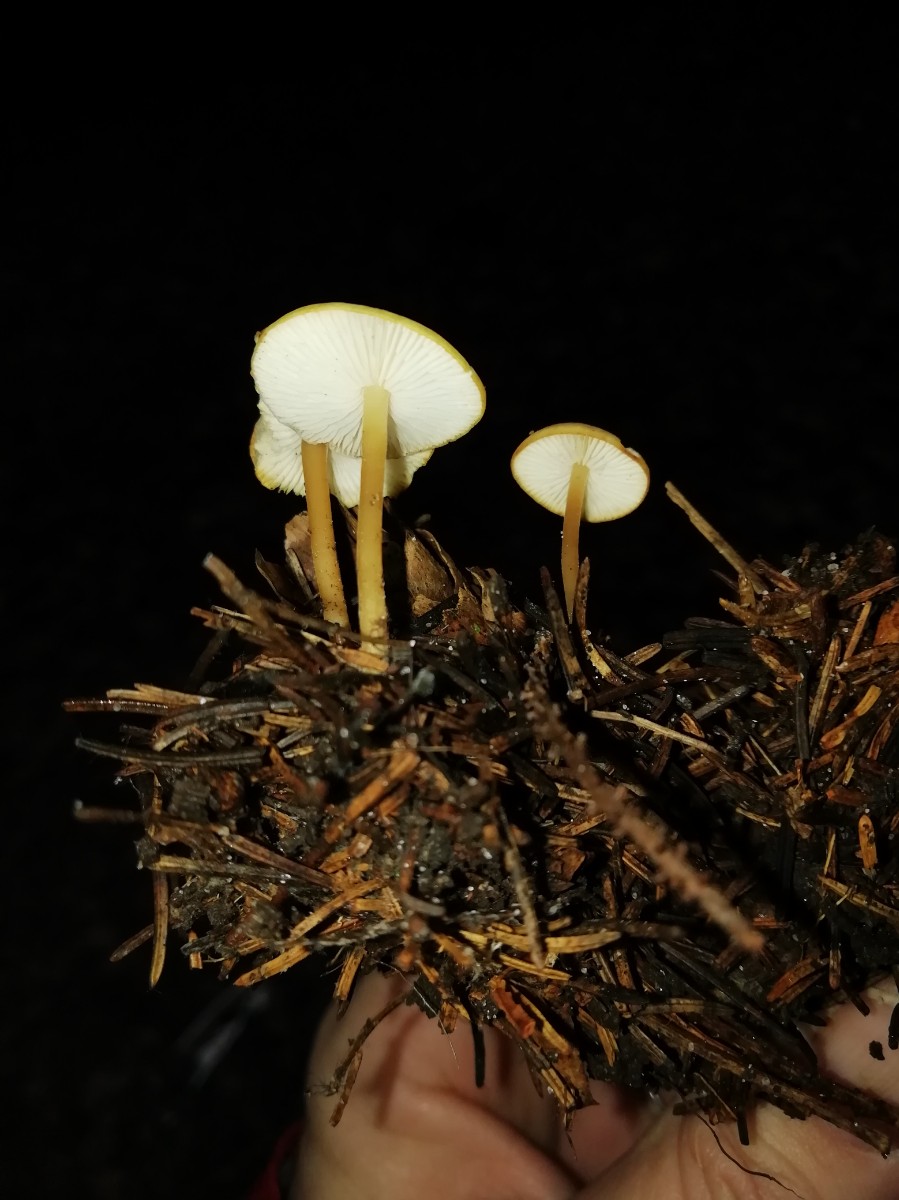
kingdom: Fungi
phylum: Basidiomycota
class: Agaricomycetes
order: Agaricales
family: Physalacriaceae
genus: Strobilurus
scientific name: Strobilurus esculentus
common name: gran-koglehat
